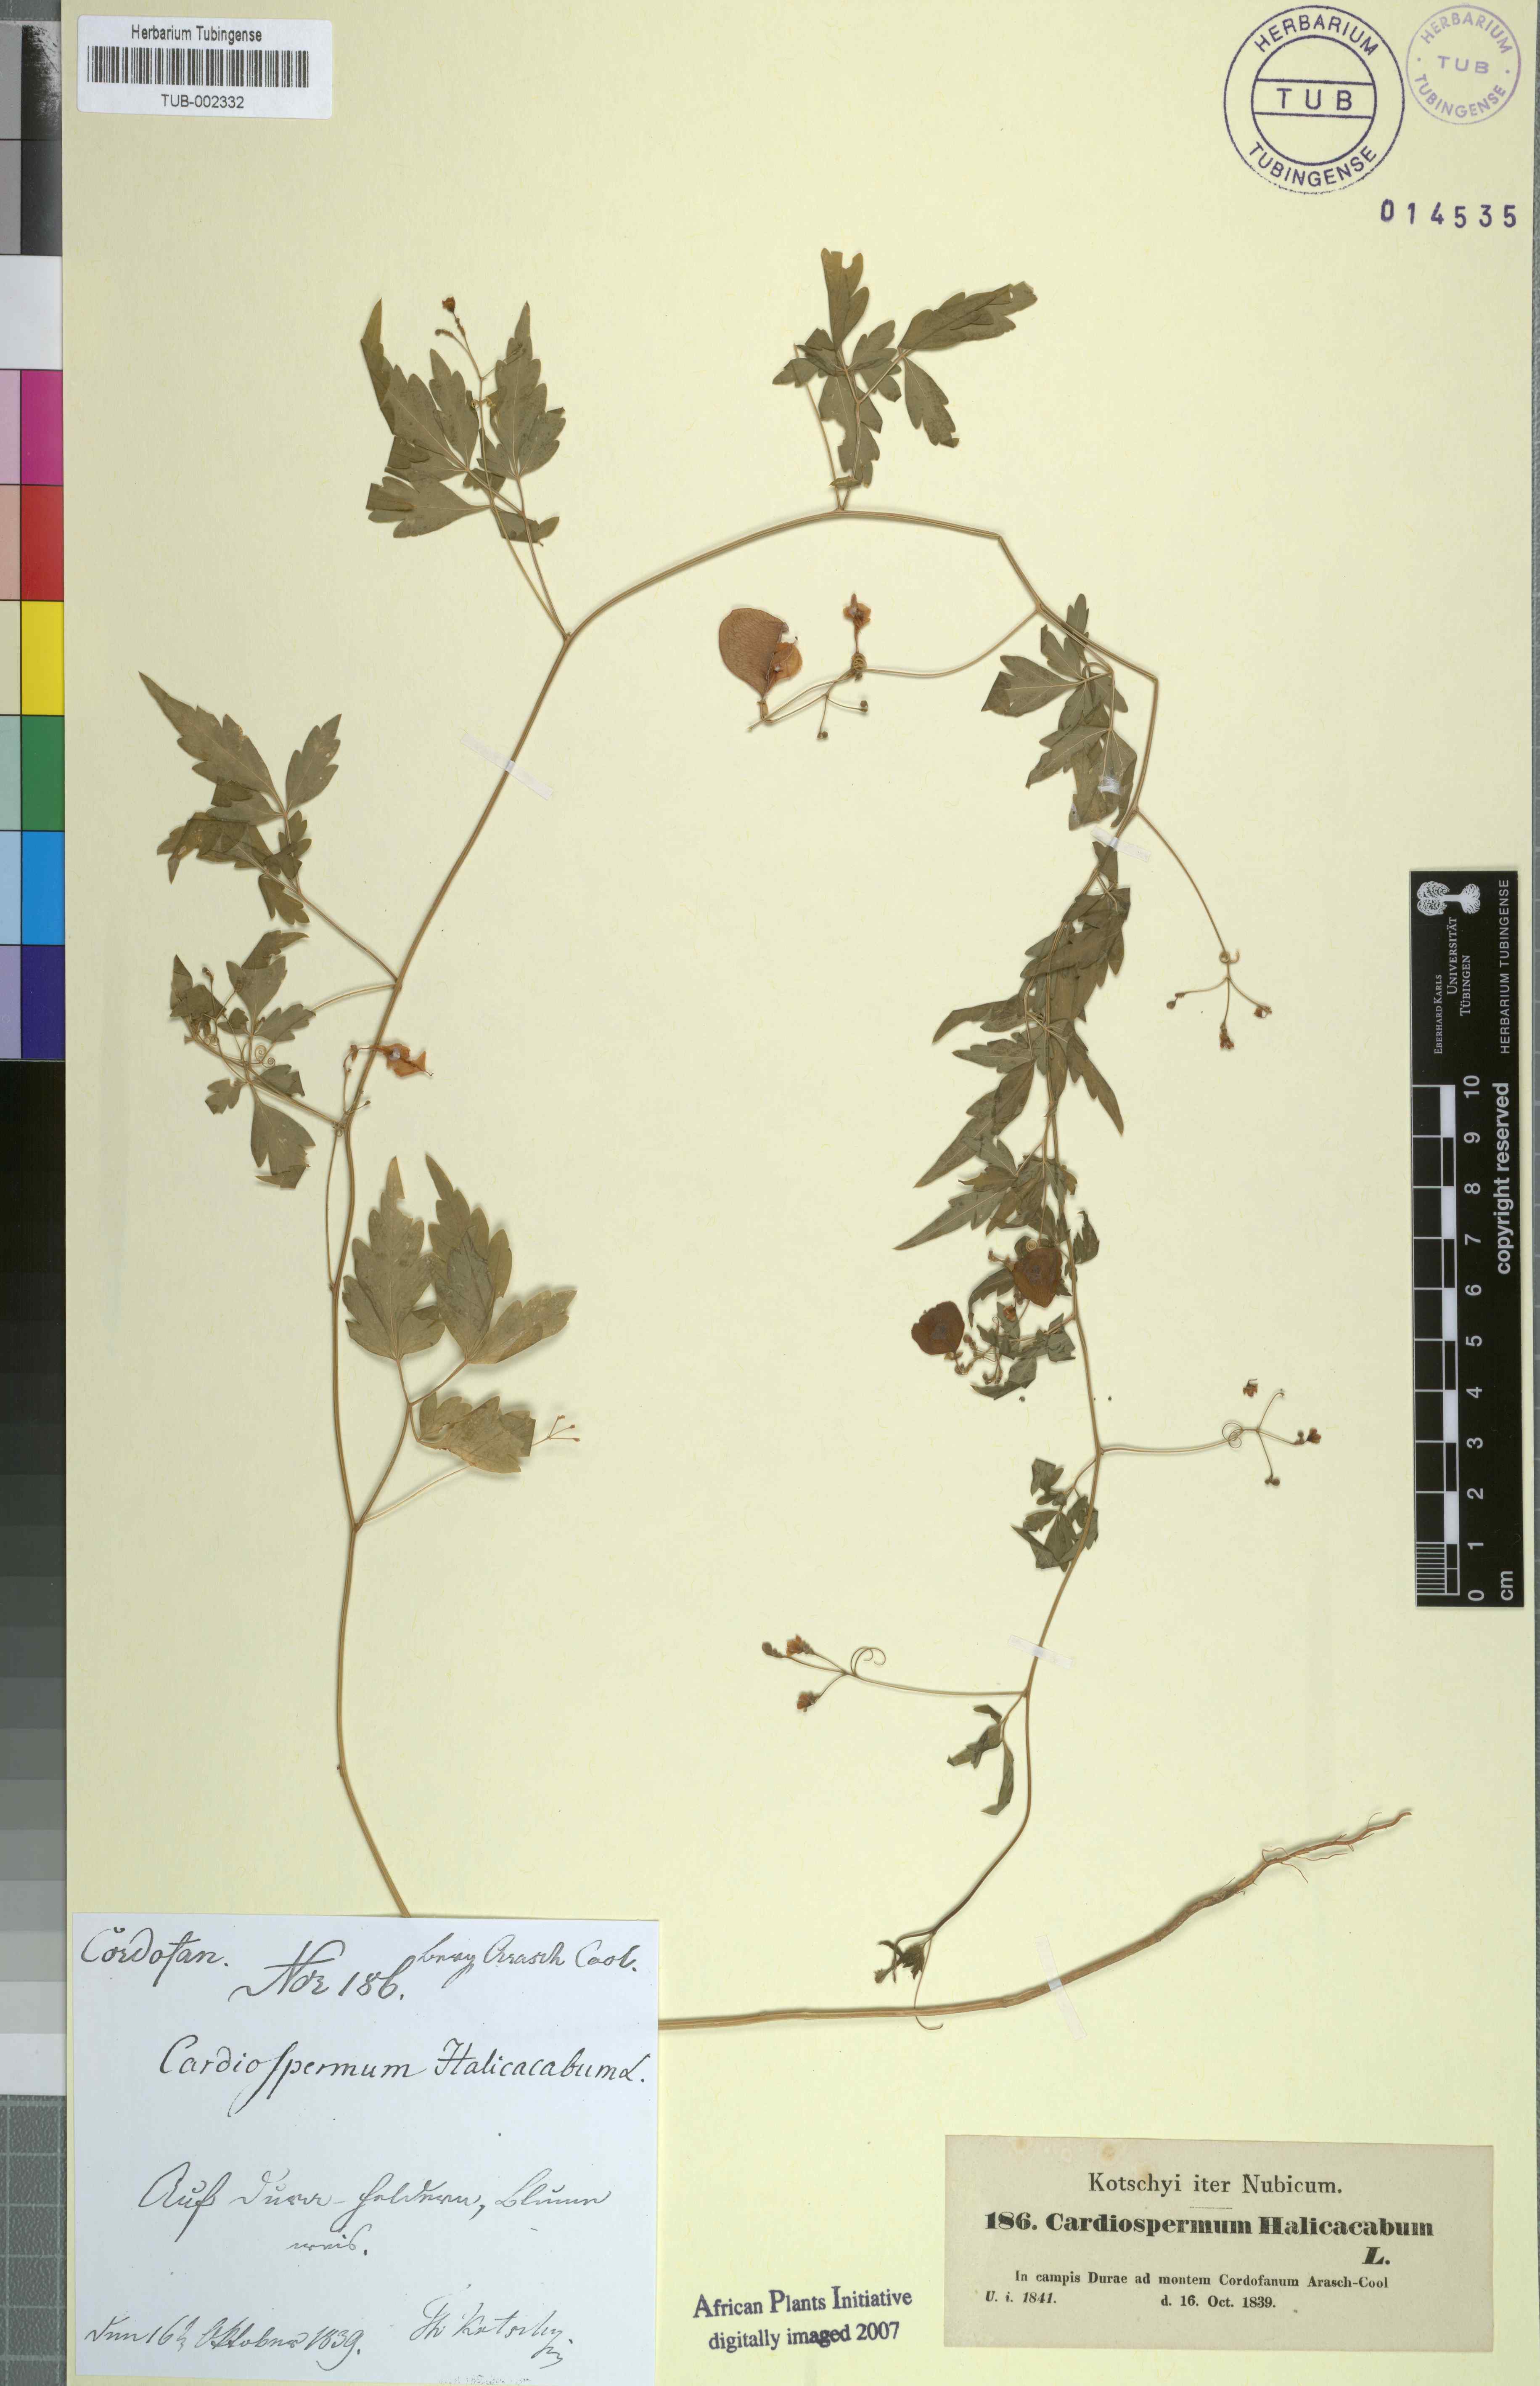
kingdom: Plantae
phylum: Tracheophyta
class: Magnoliopsida
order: Sapindales
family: Sapindaceae
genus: Cardiospermum
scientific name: Cardiospermum halicacabum
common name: Balloon vine
